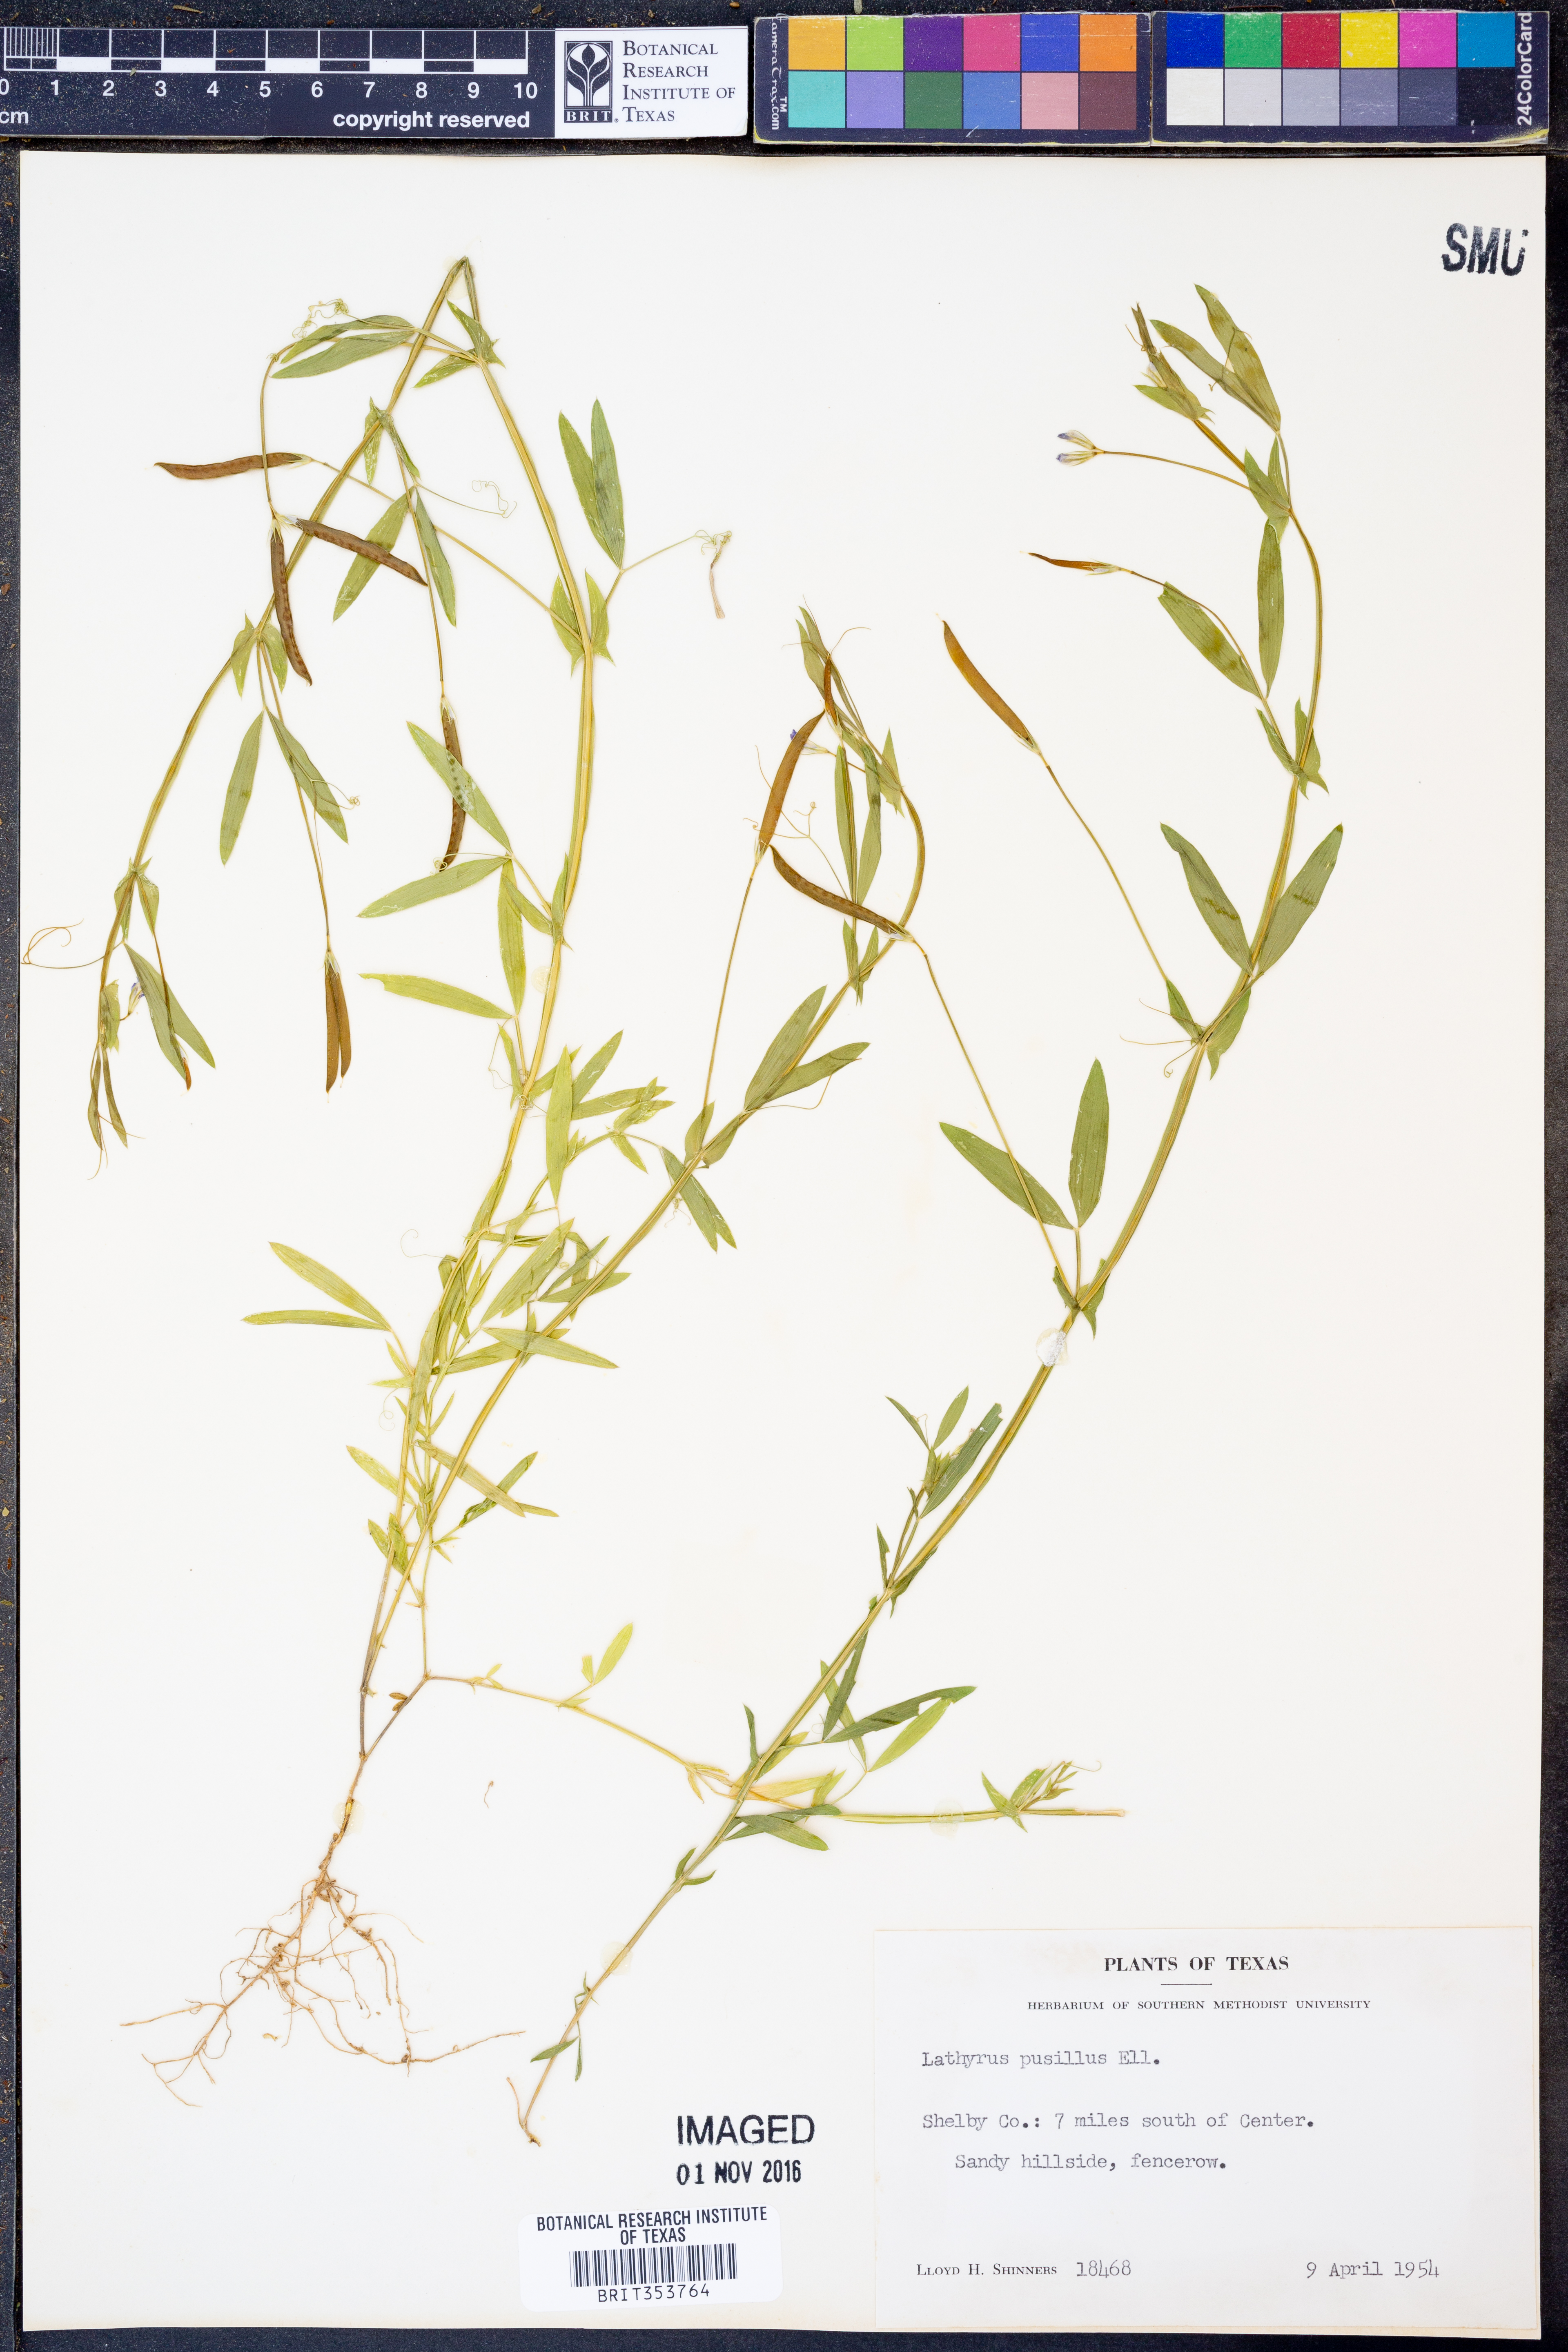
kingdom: Plantae
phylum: Tracheophyta
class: Magnoliopsida
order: Fabales
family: Fabaceae
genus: Lathyrus
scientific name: Lathyrus pusillus
